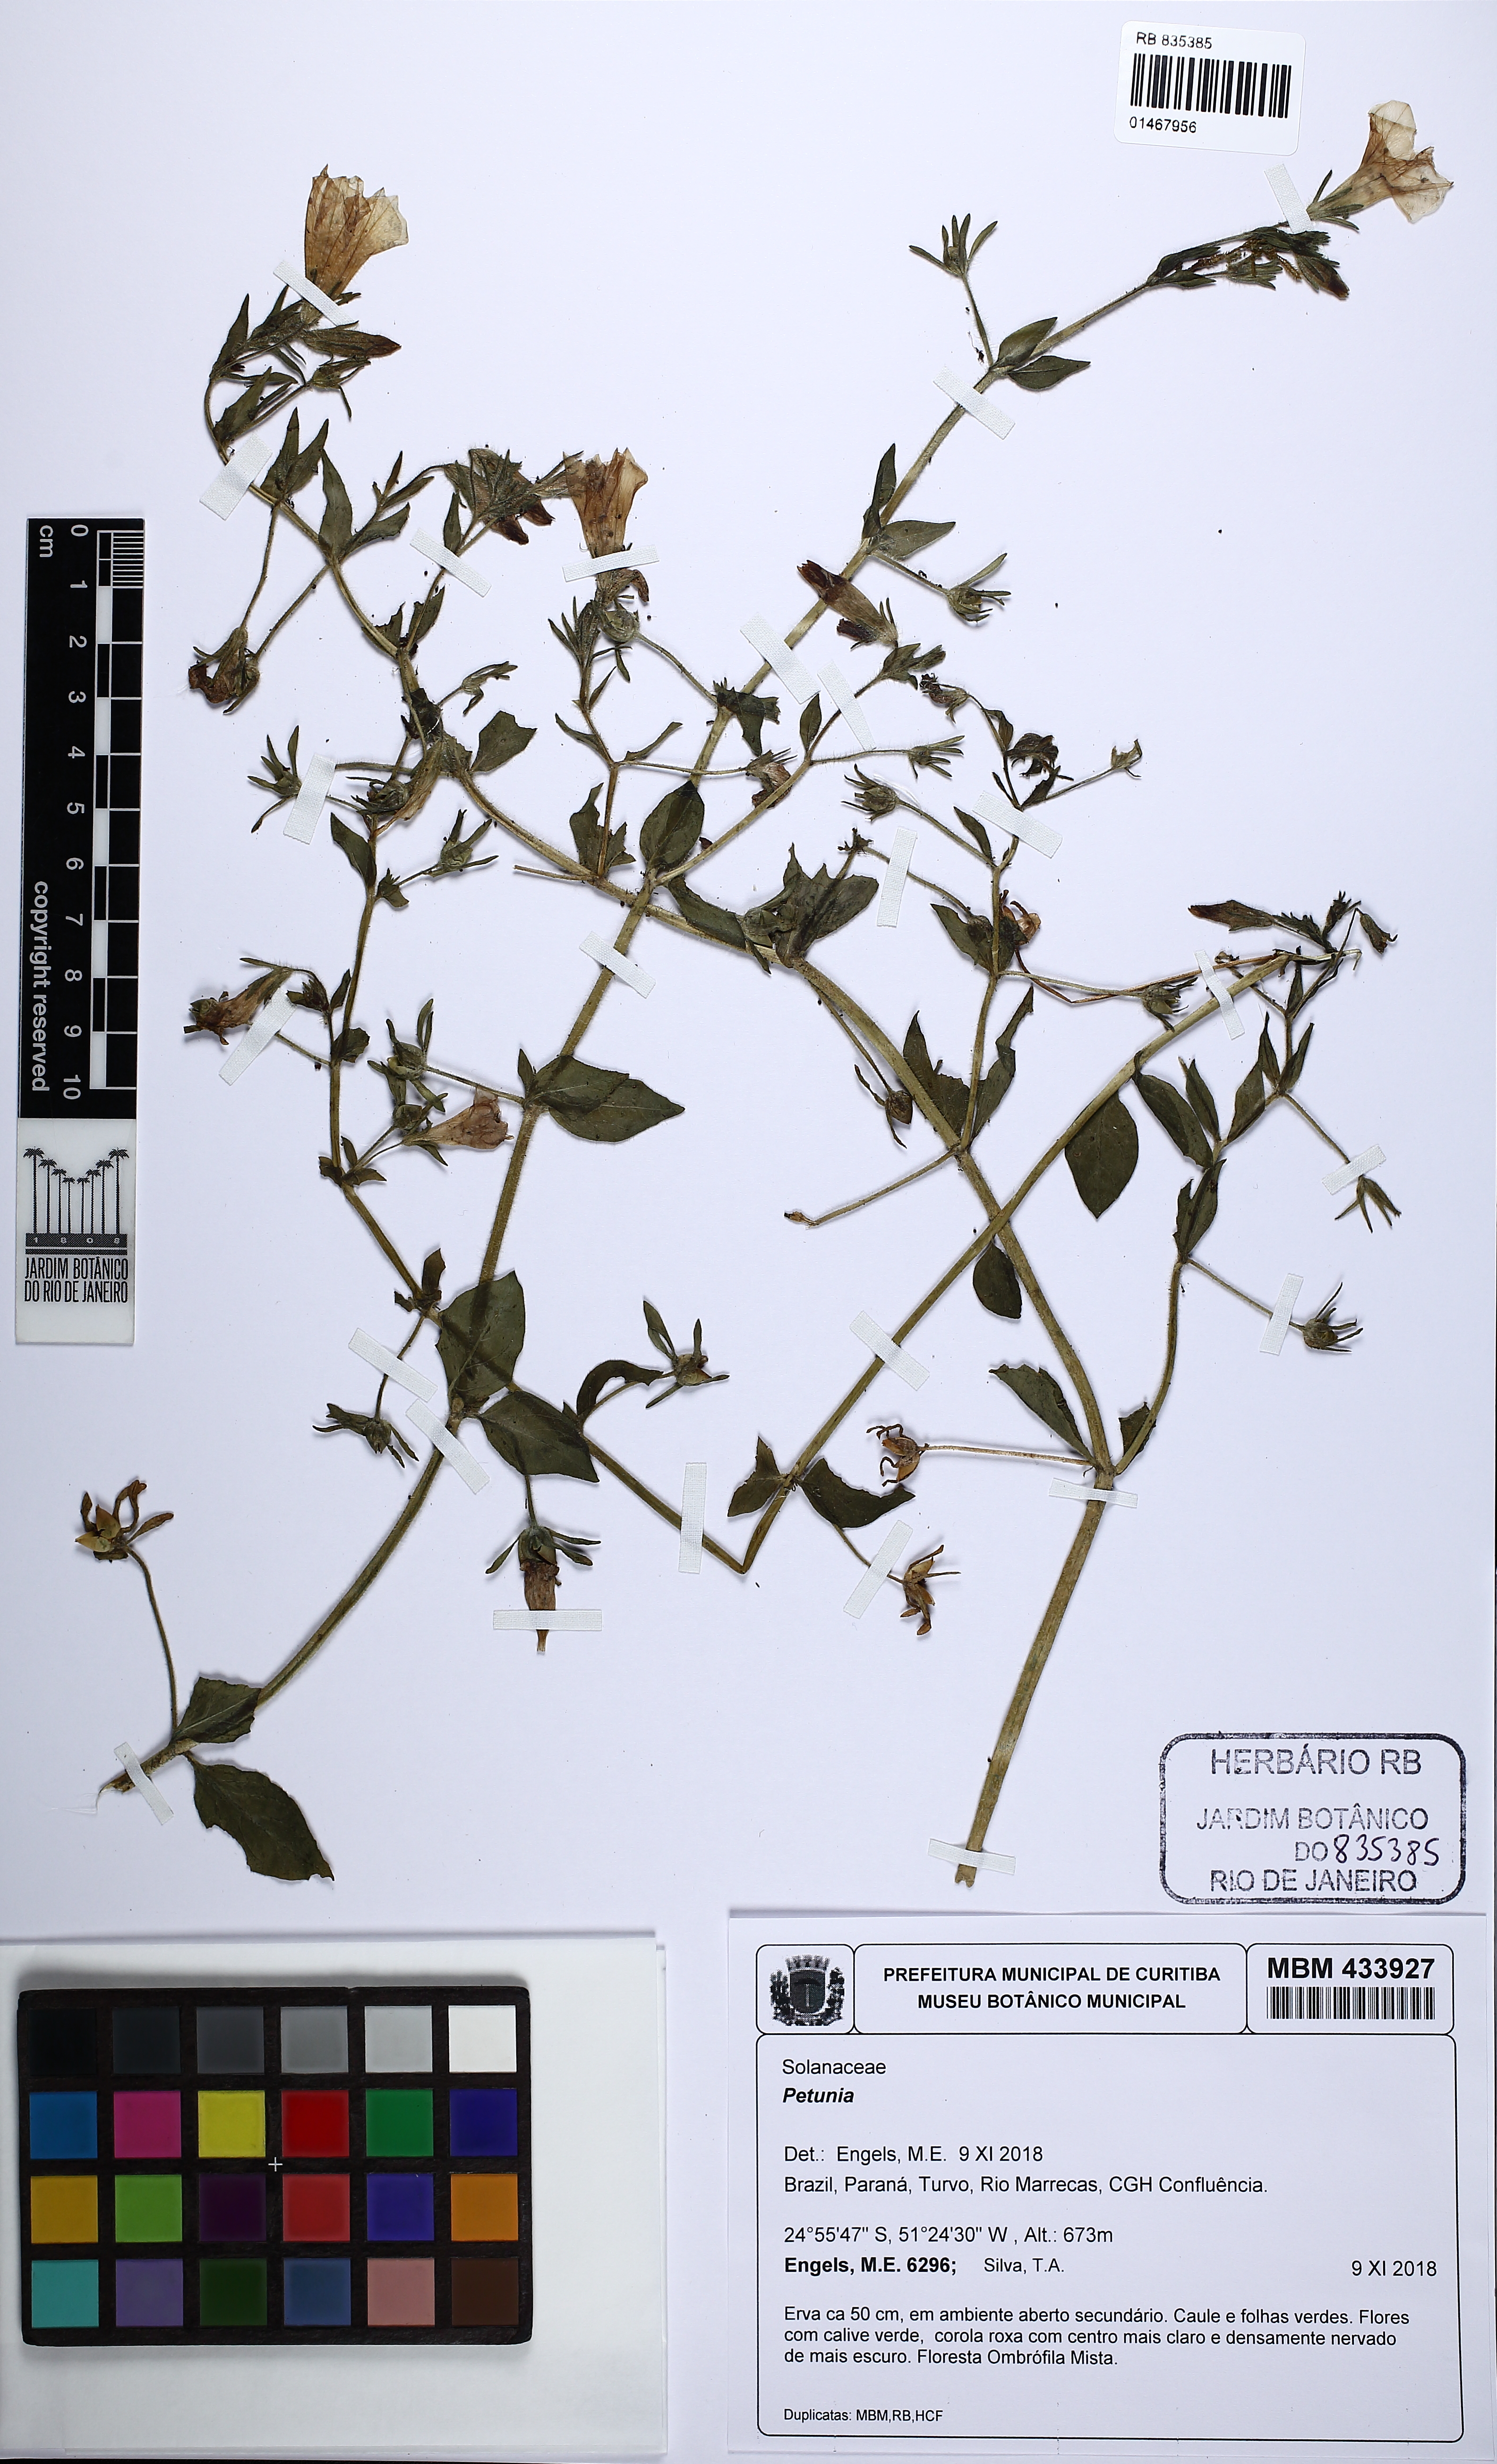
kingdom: Plantae
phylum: Tracheophyta
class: Magnoliopsida
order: Solanales
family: Solanaceae
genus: Petunia
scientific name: Petunia
